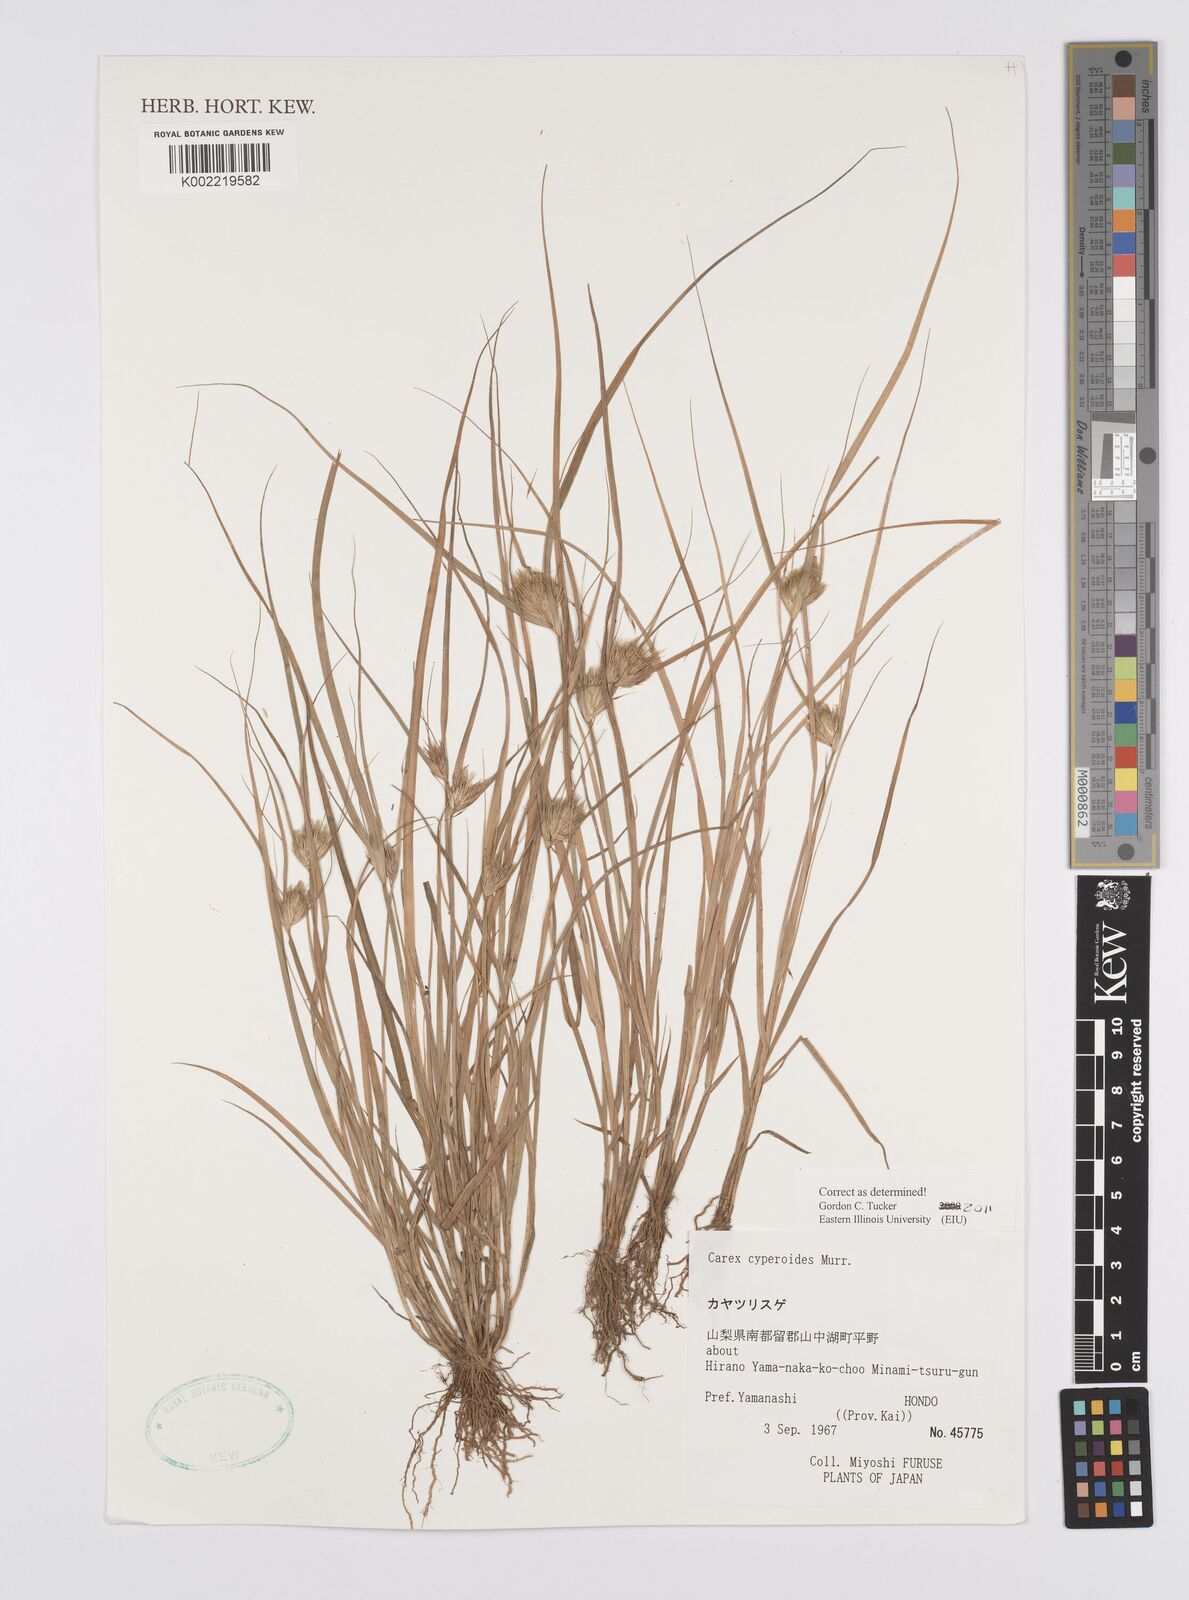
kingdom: Plantae
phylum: Tracheophyta
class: Liliopsida
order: Poales
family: Cyperaceae
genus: Carex
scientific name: Carex bohemica
